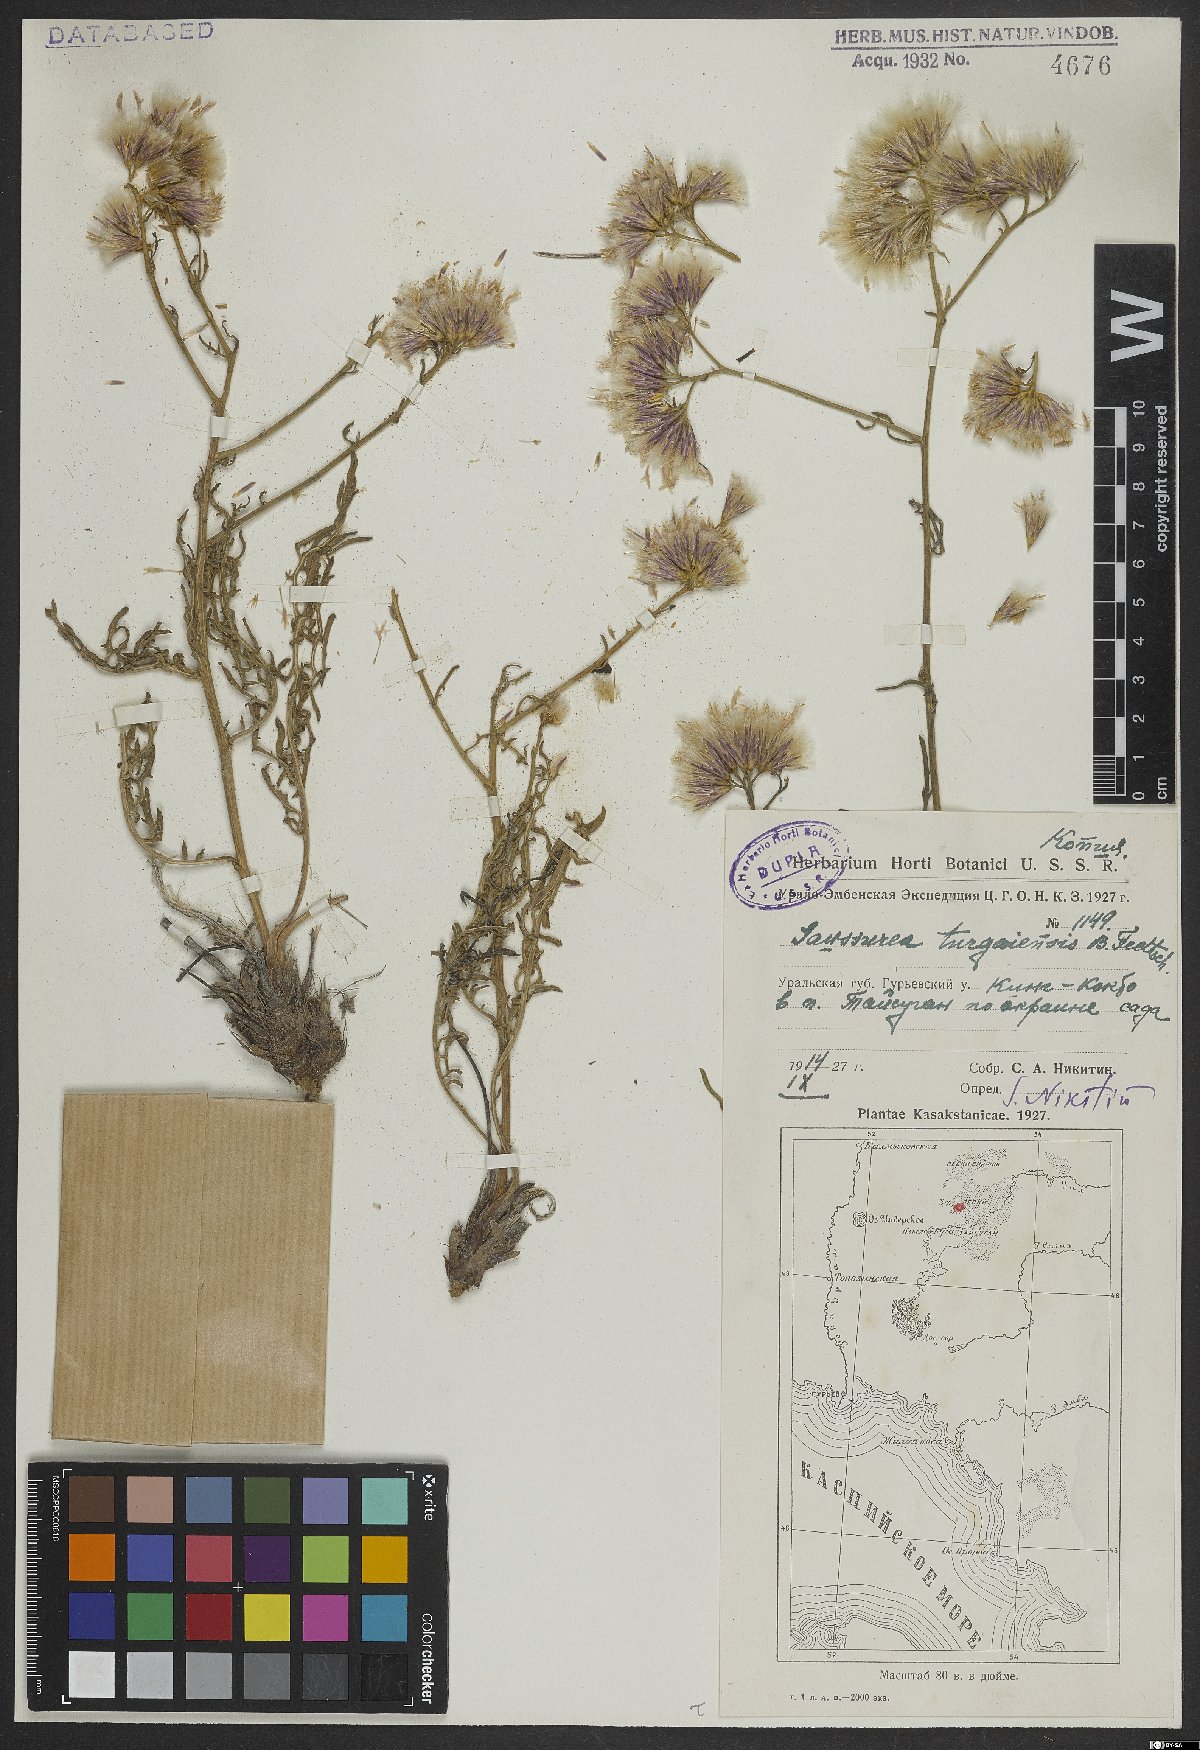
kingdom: Plantae
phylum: Tracheophyta
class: Magnoliopsida
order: Asterales
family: Asteraceae
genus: Saussurea
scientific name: Saussurea turgaiensis
